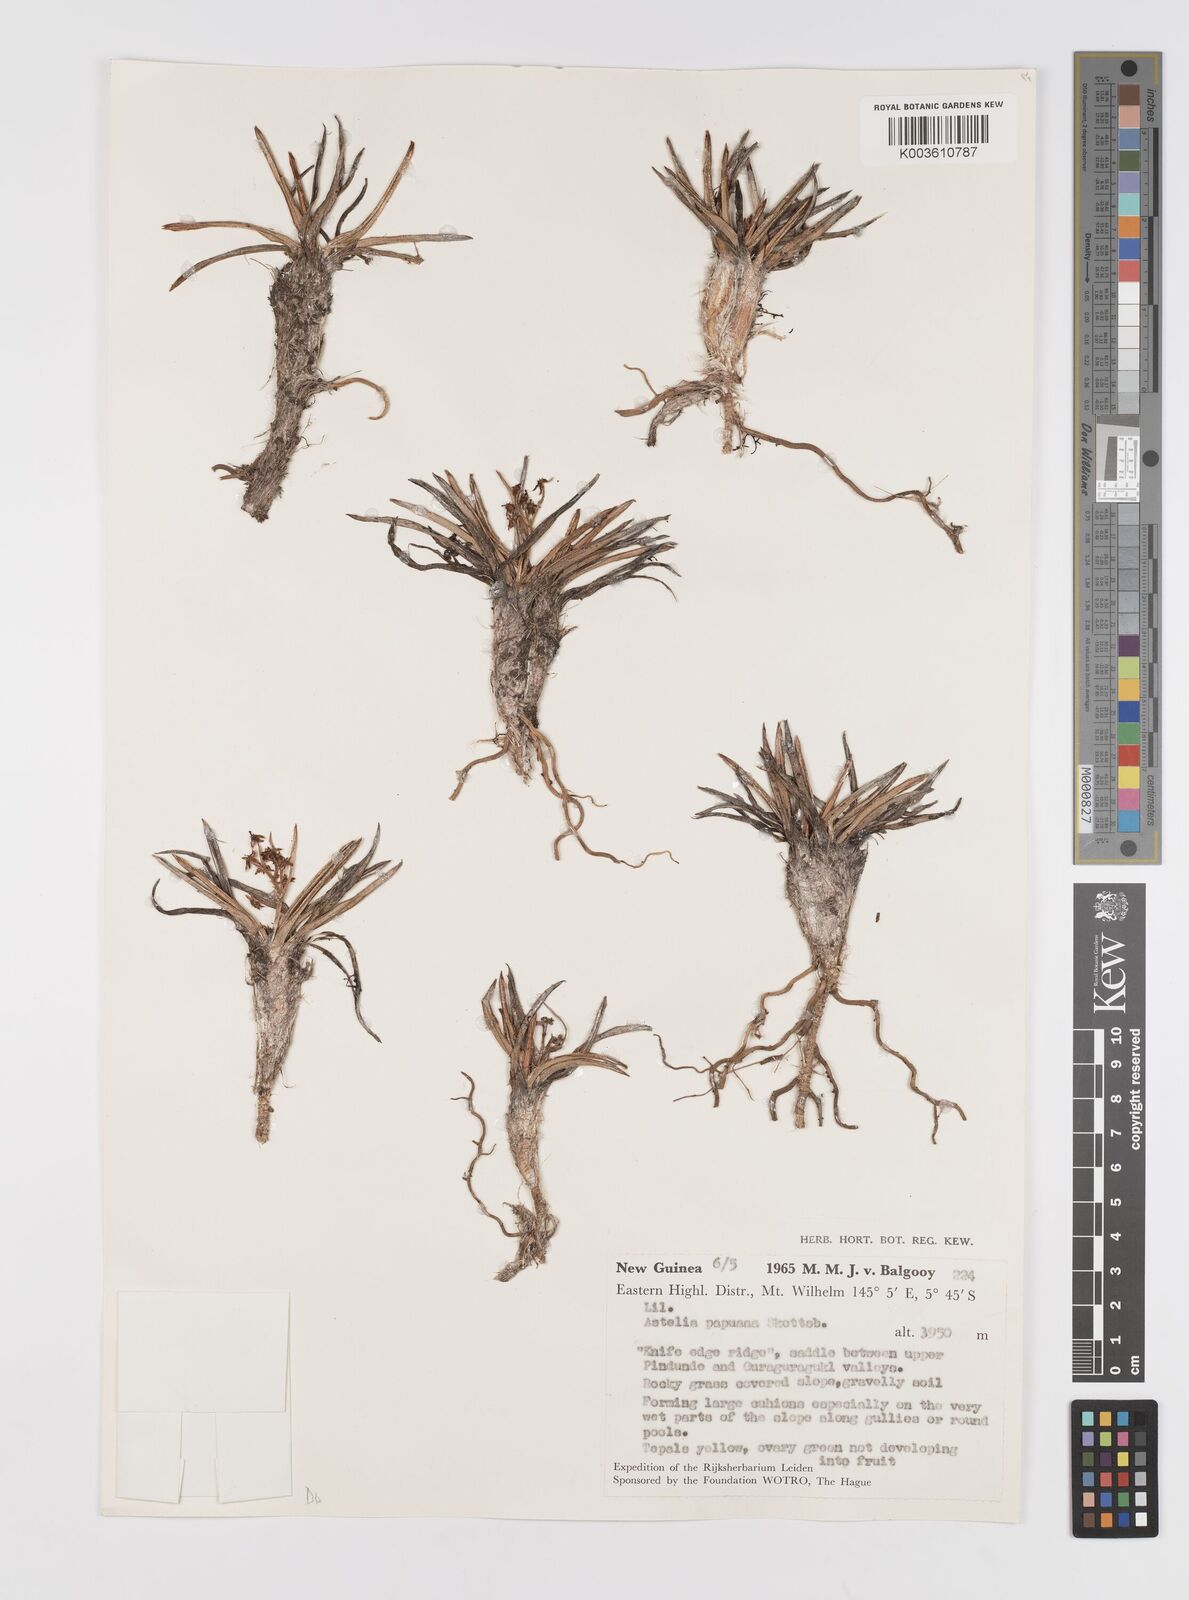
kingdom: Plantae
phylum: Tracheophyta
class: Liliopsida
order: Asparagales
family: Asteliaceae
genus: Astelia
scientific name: Astelia papuana
